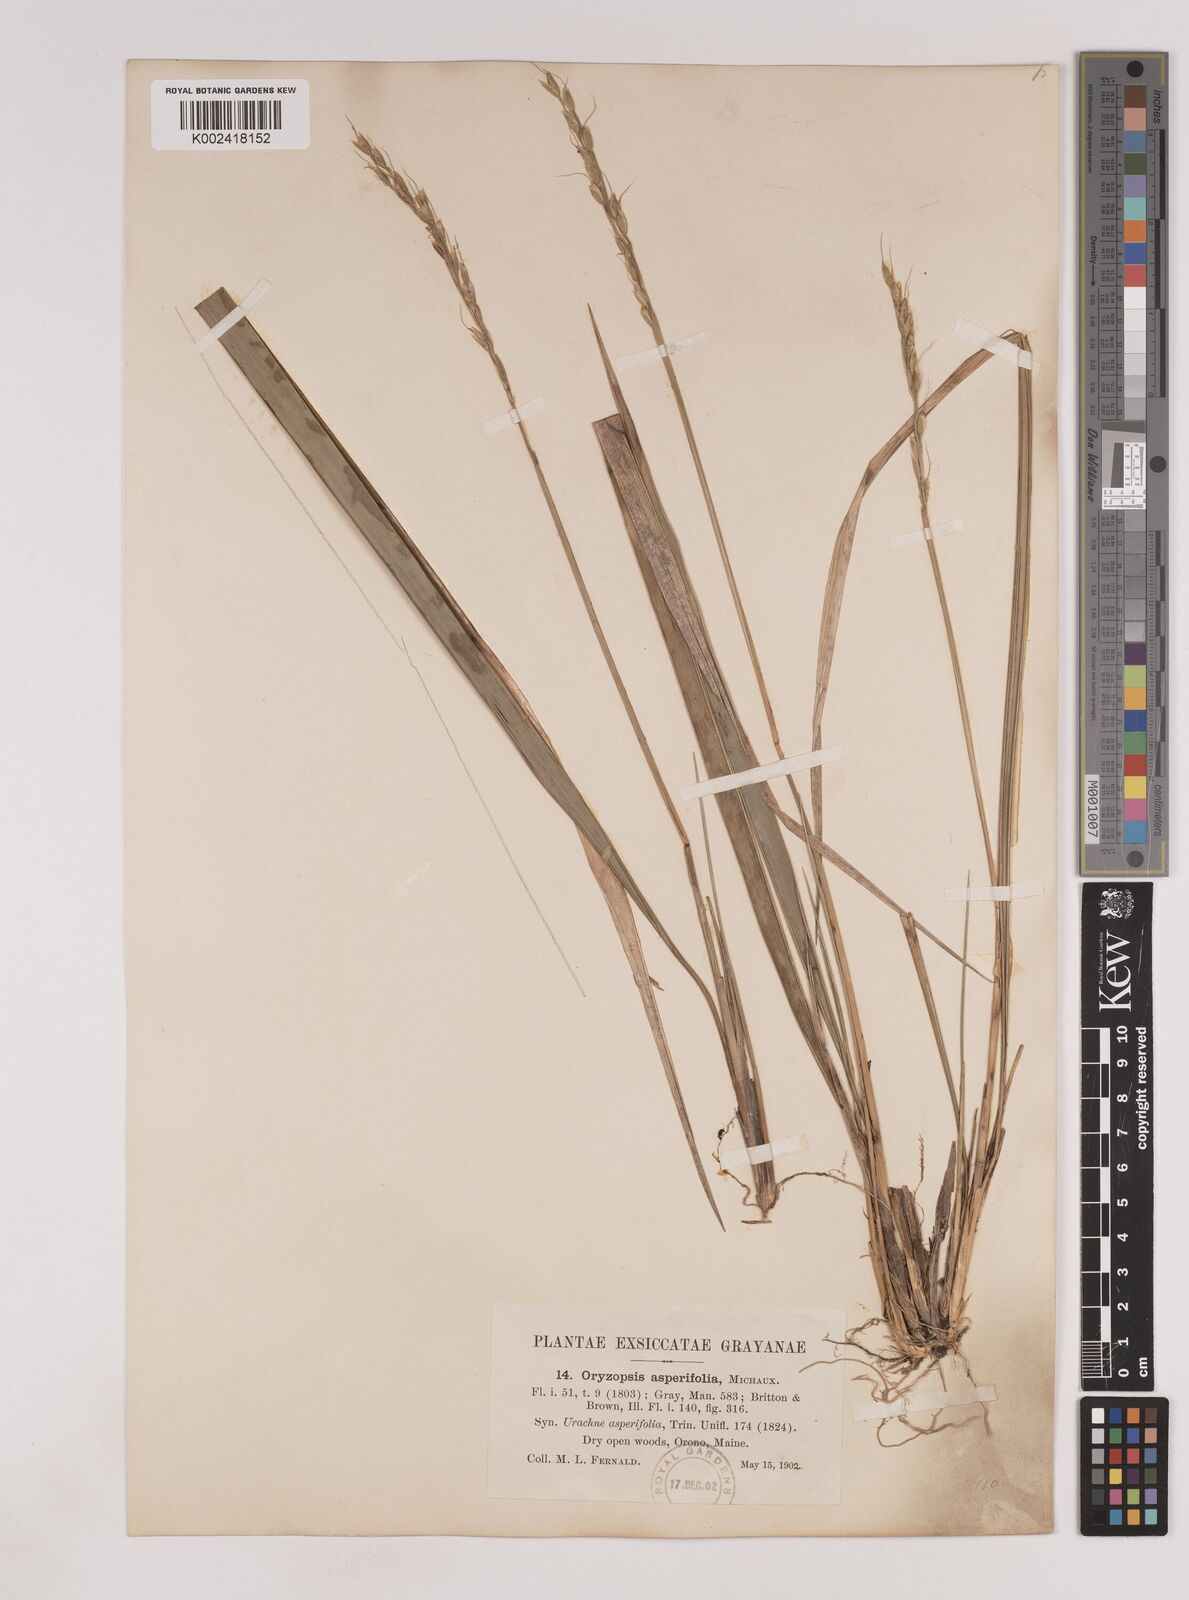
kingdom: Plantae
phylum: Tracheophyta
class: Liliopsida
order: Poales
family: Poaceae
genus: Oryzopsis
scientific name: Oryzopsis asperifolia
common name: Rough-leaved mountain rice
